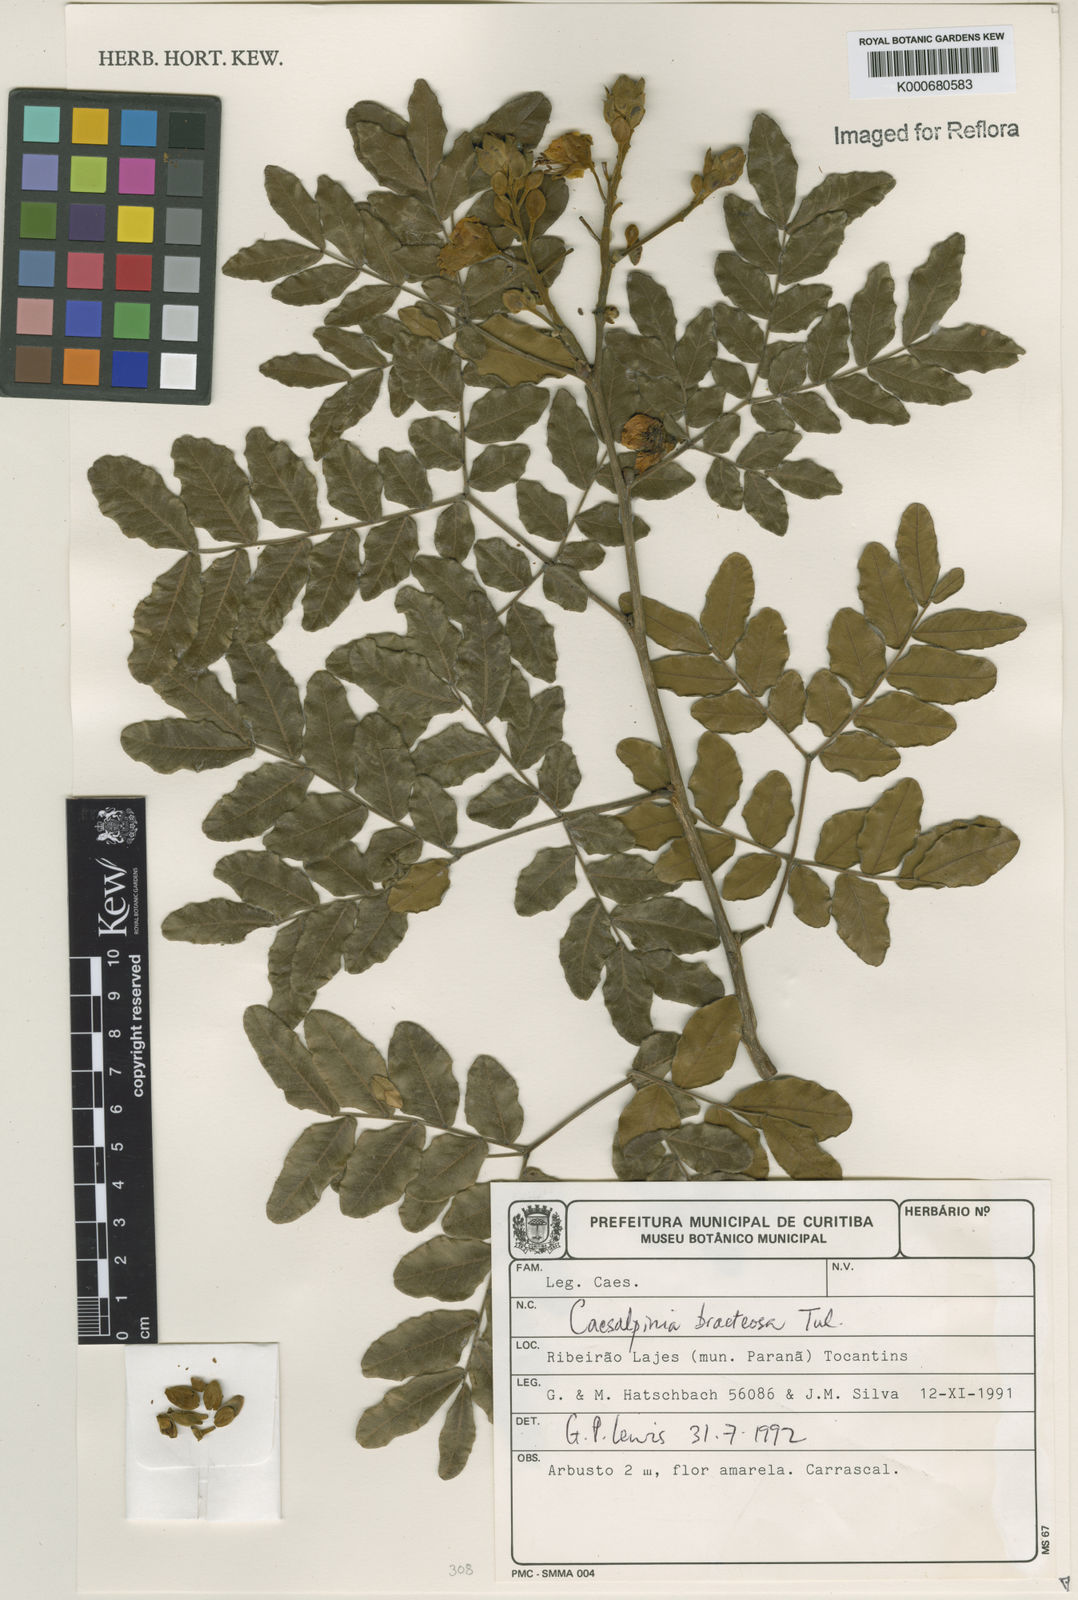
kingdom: Plantae
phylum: Tracheophyta
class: Magnoliopsida
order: Fabales
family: Fabaceae
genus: Cenostigma
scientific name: Cenostigma bracteosum
